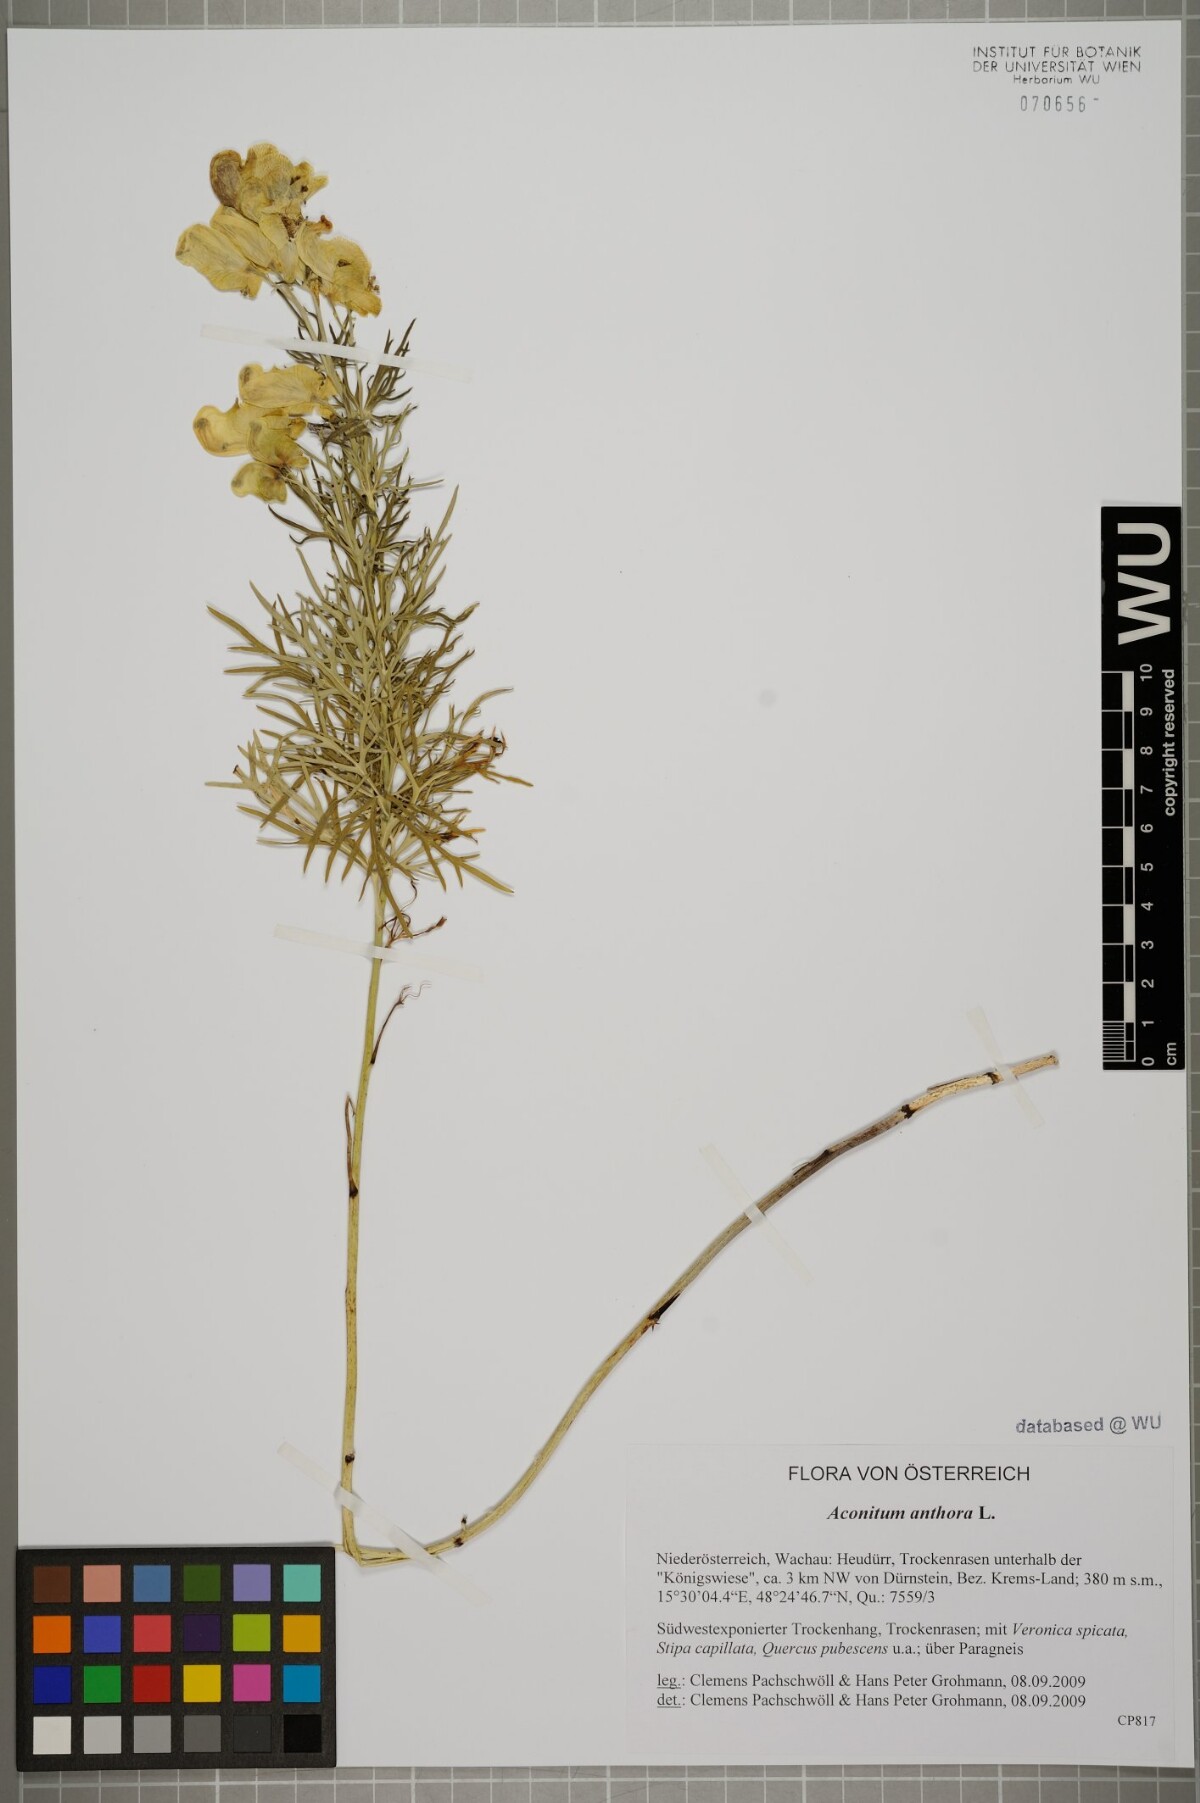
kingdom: Plantae
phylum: Tracheophyta
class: Magnoliopsida
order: Ranunculales
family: Ranunculaceae
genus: Aconitum
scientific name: Aconitum anthora
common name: Yellow monkshood
